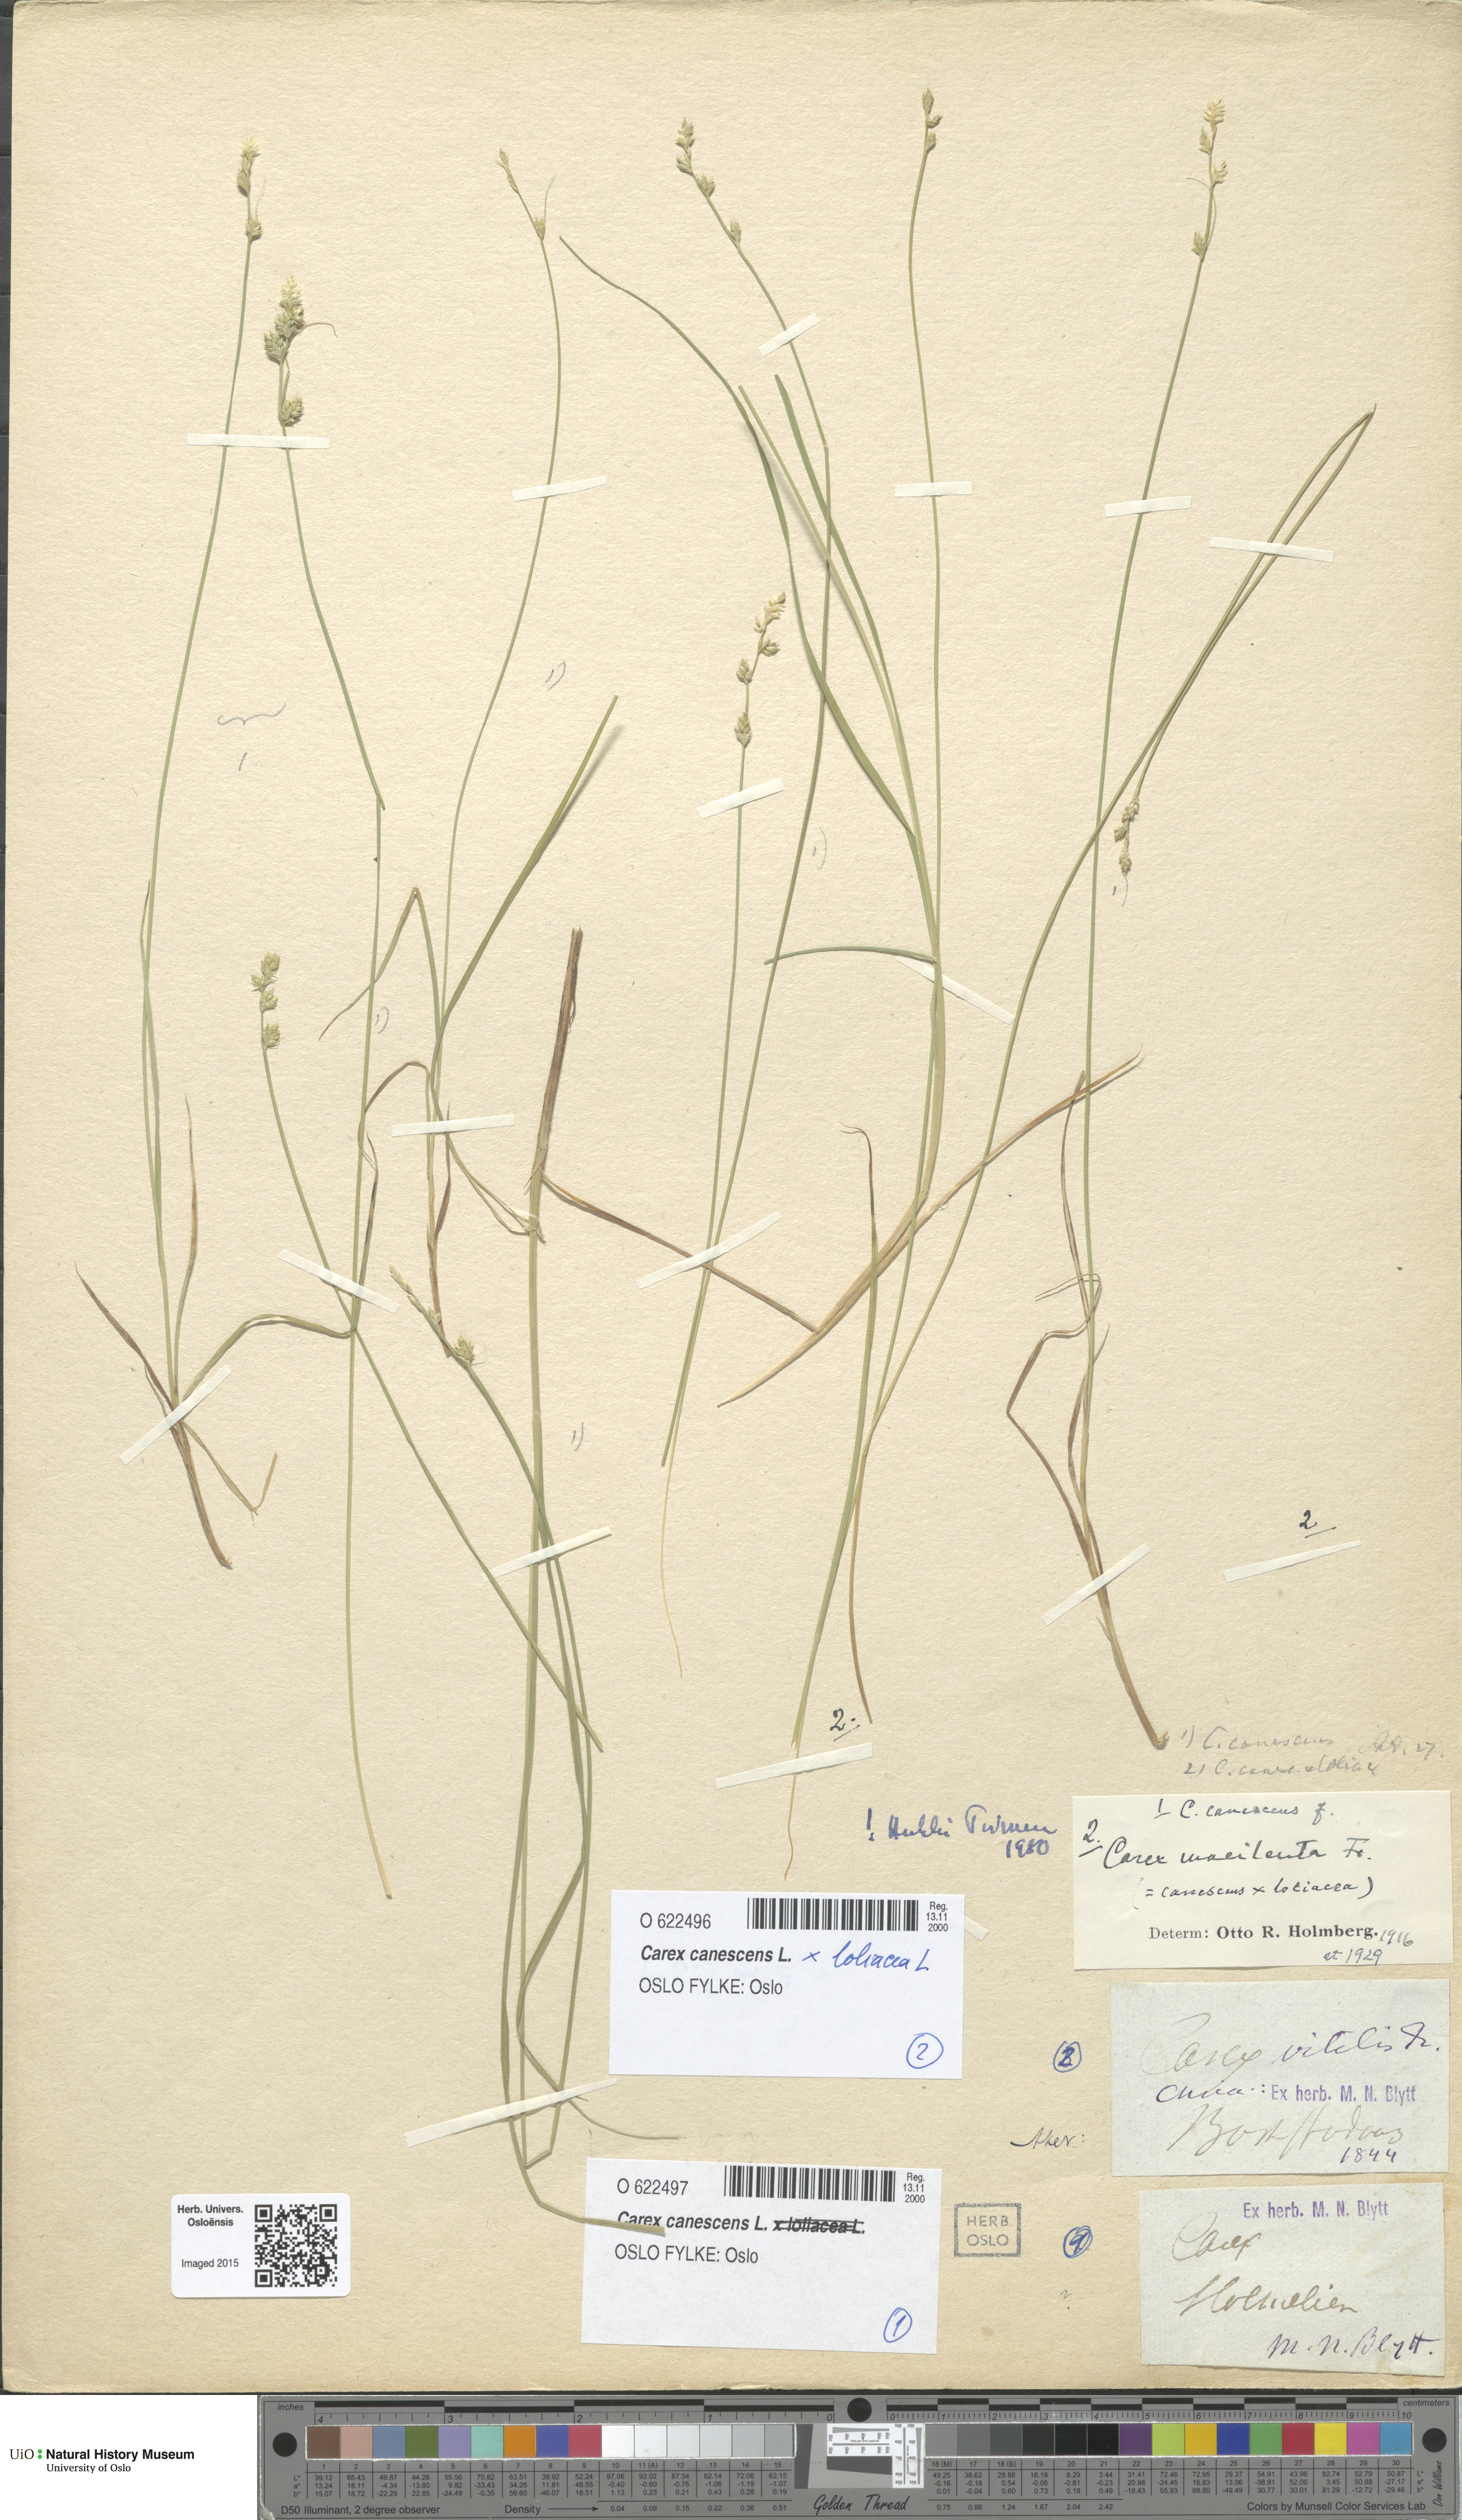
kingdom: Plantae
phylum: Tracheophyta
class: Liliopsida
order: Poales
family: Cyperaceae
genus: Carex
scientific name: Carex
